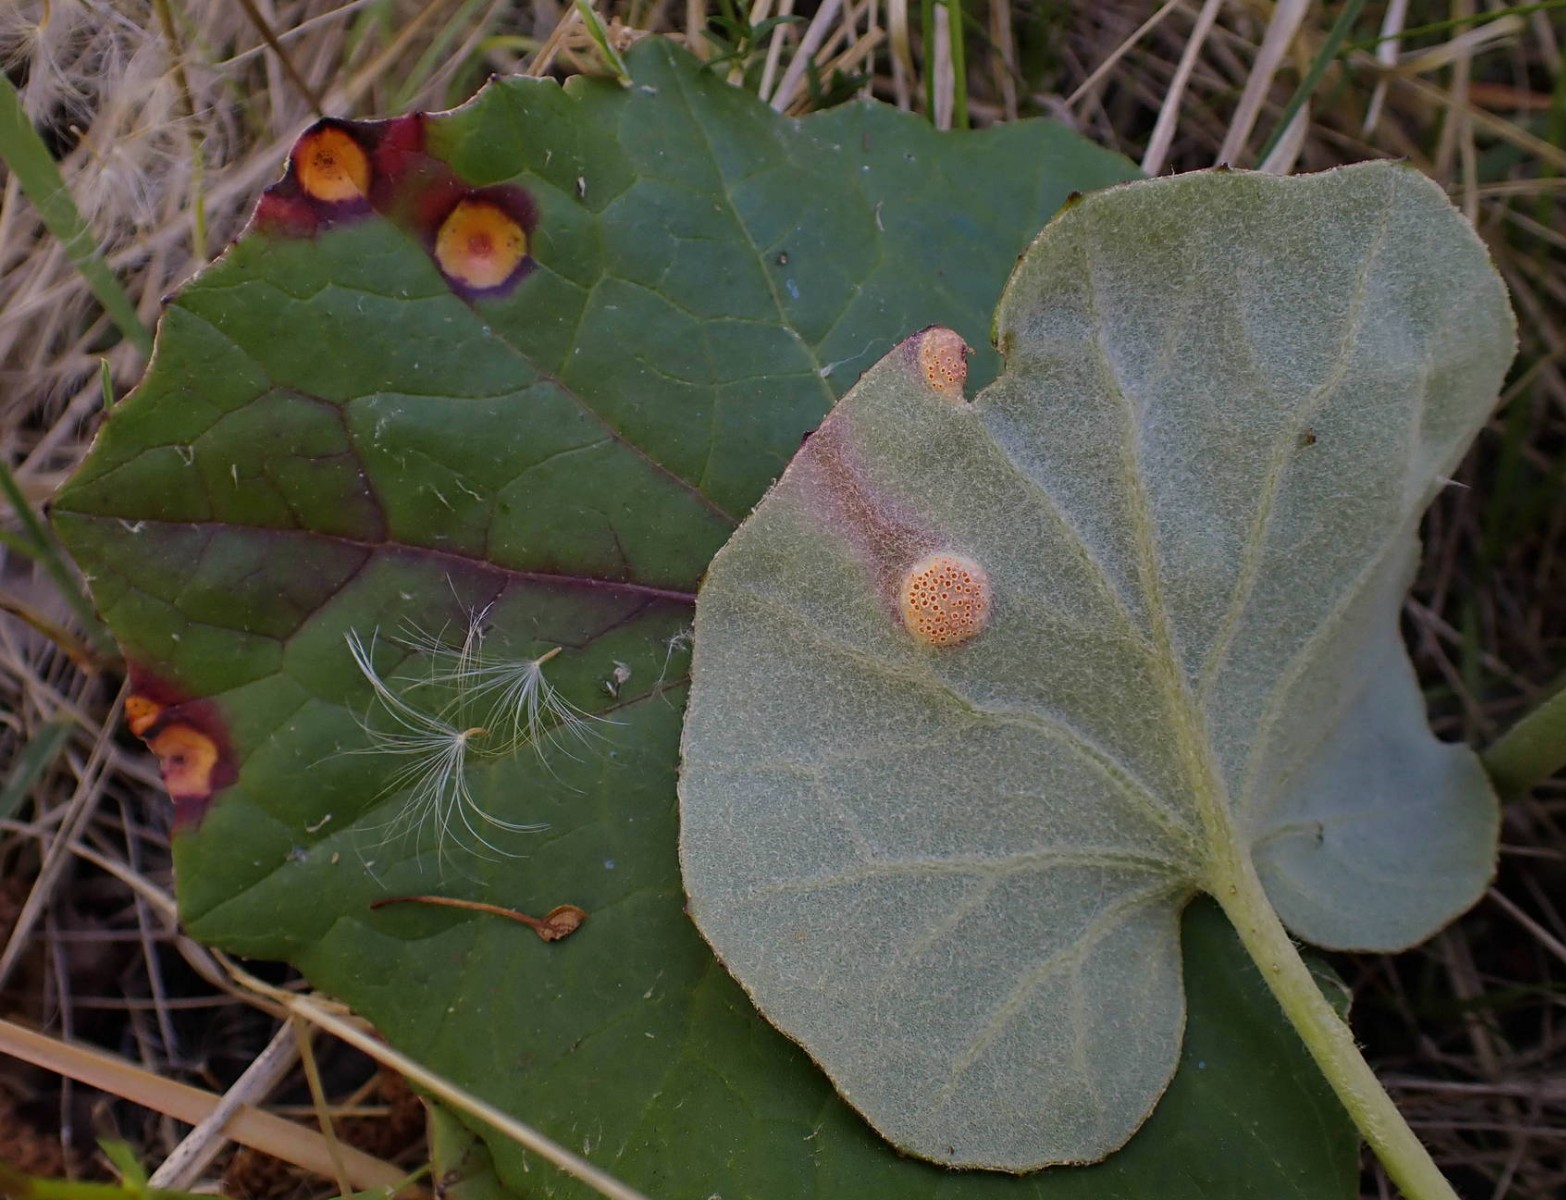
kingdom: Fungi
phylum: Basidiomycota
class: Pucciniomycetes
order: Pucciniales
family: Pucciniaceae
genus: Puccinia
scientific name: Puccinia poarum
